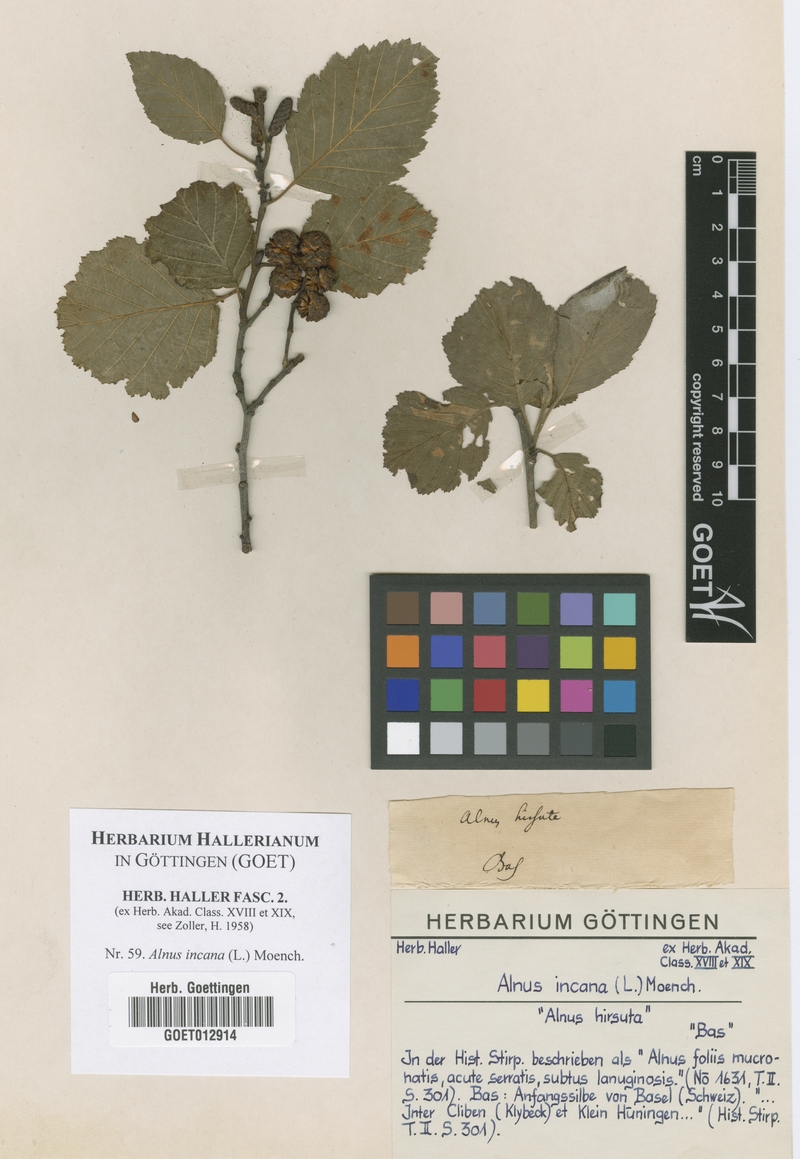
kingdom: Plantae
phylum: Tracheophyta
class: Magnoliopsida
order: Fagales
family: Betulaceae
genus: Alnus
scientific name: Alnus incana
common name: Grey alder
